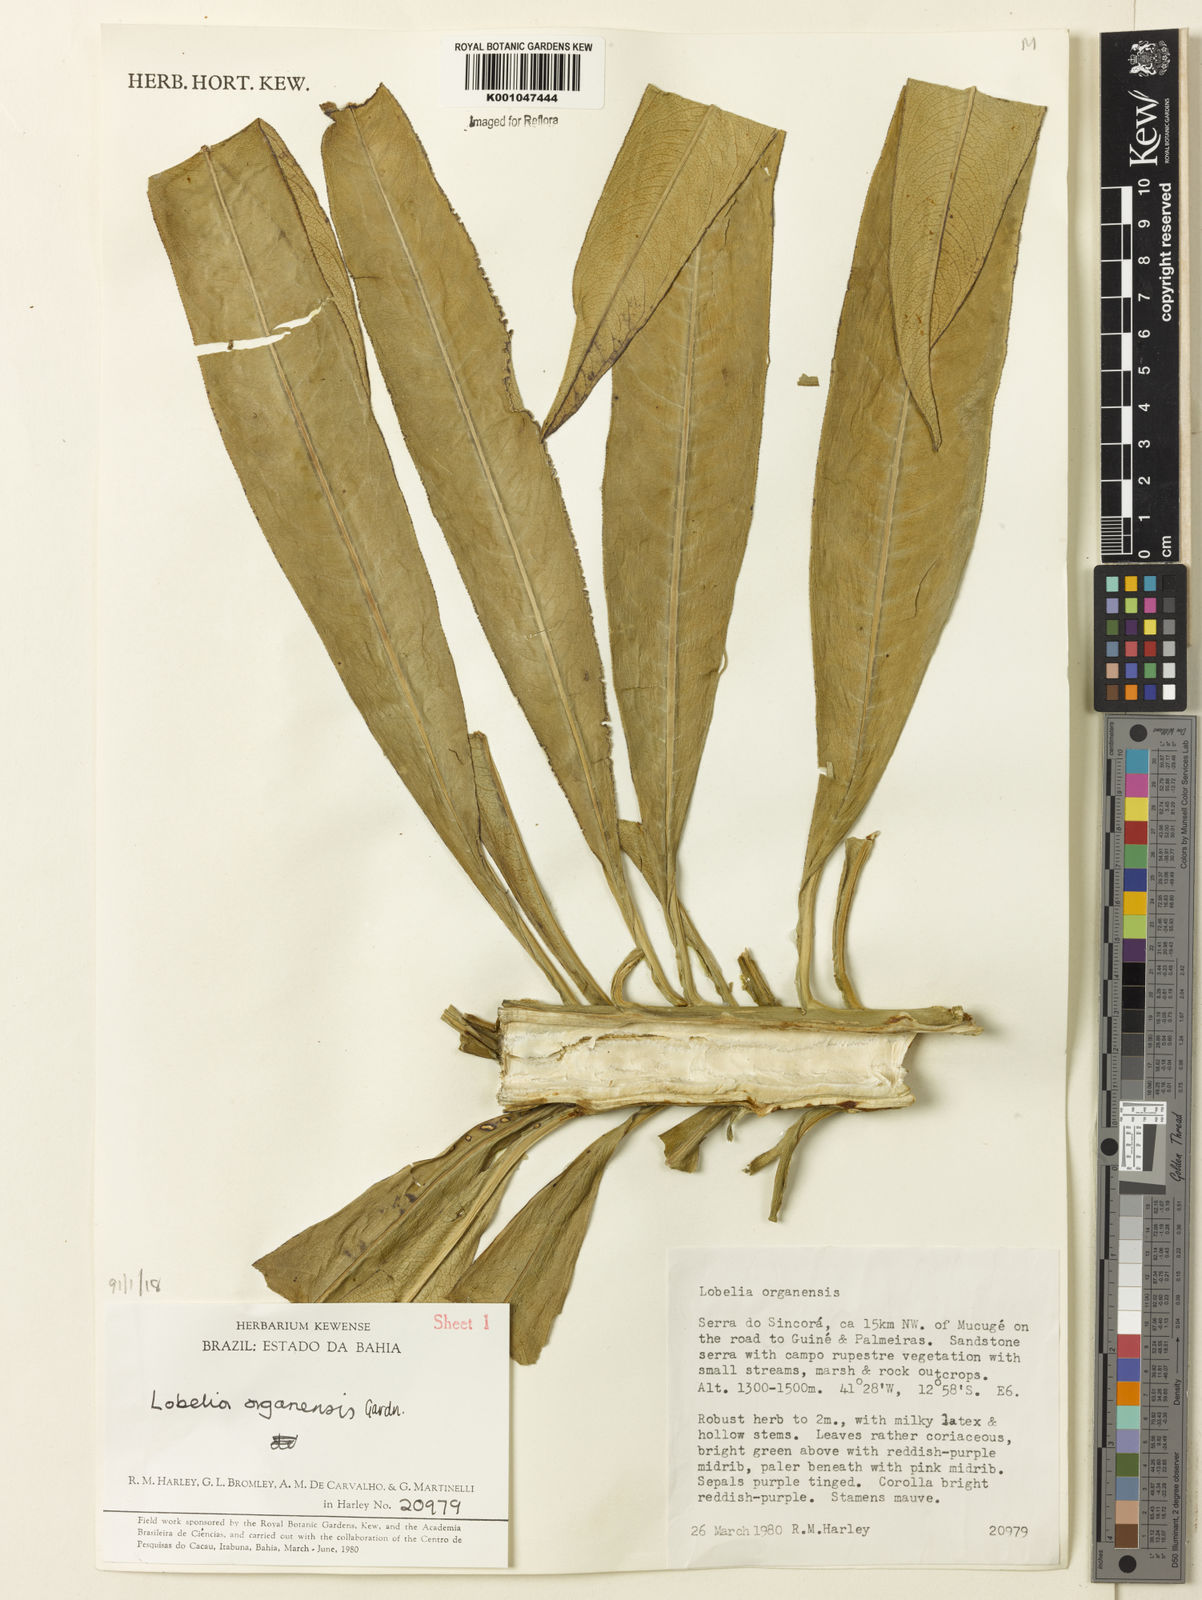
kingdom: Plantae
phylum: Tracheophyta
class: Magnoliopsida
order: Asterales
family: Campanulaceae
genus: Lobelia
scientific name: Lobelia organensis
